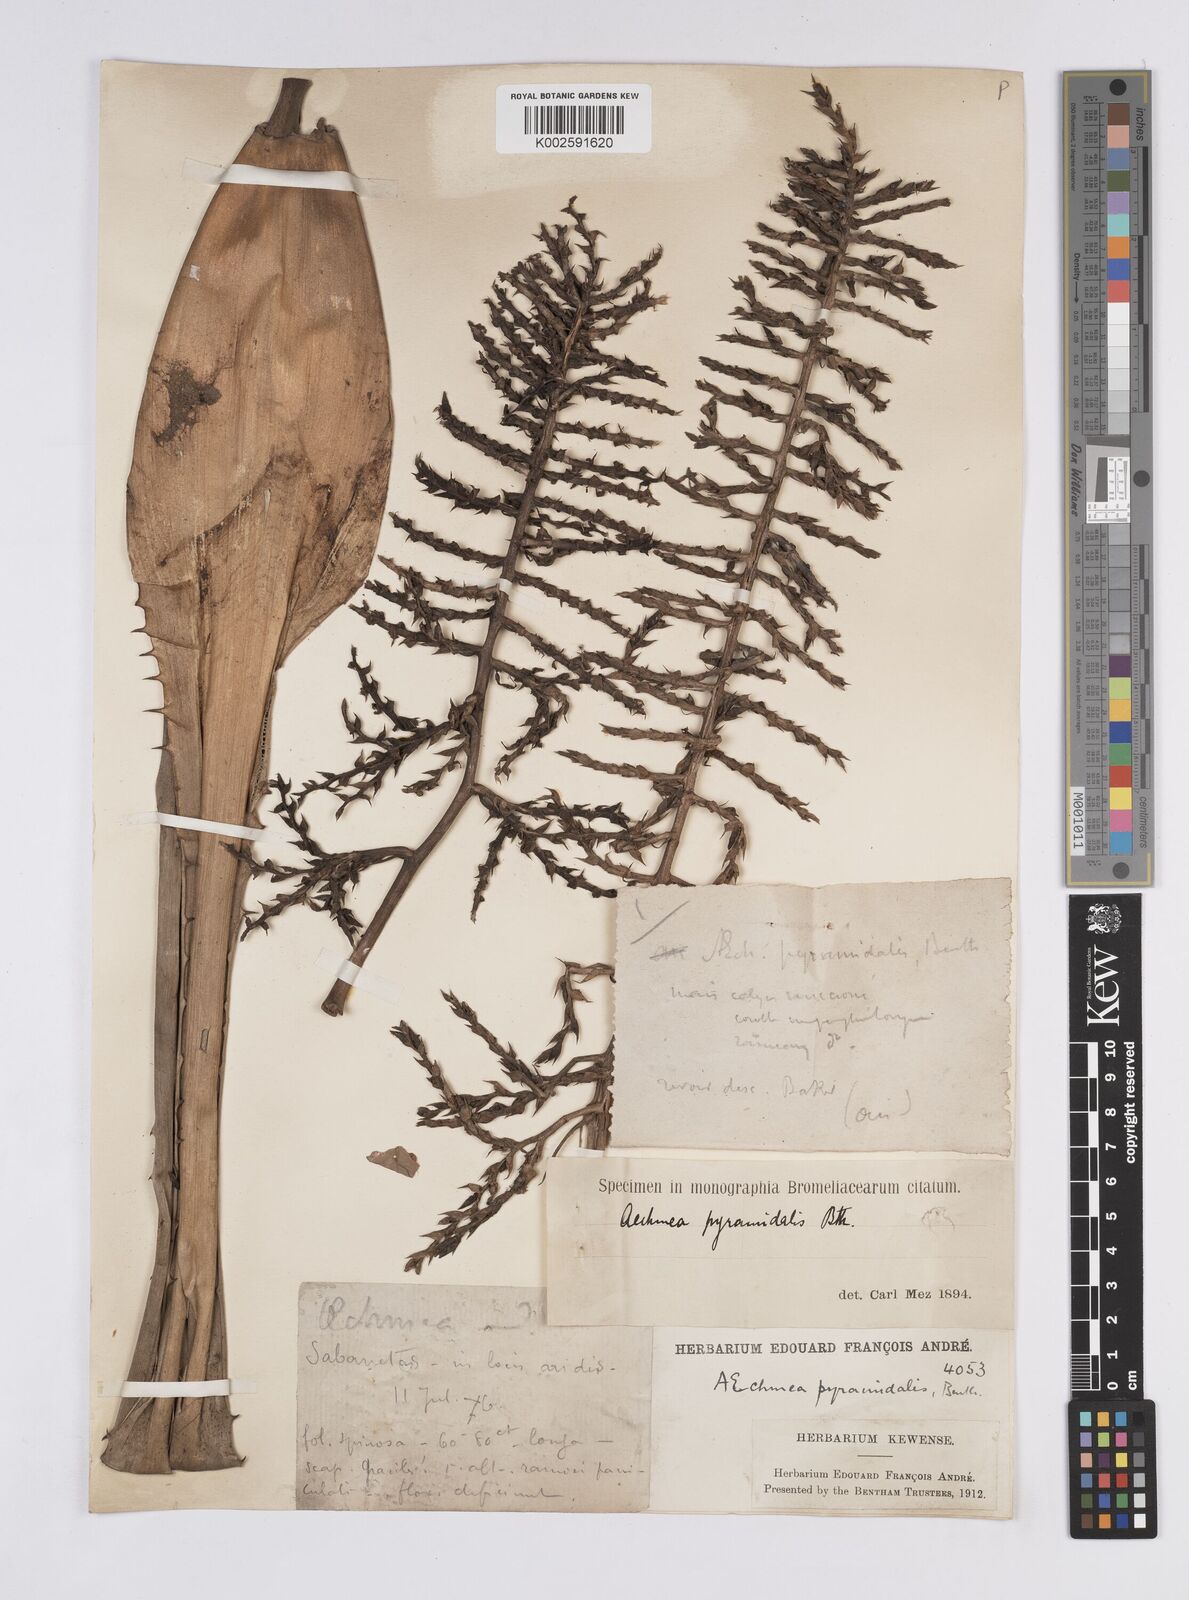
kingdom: Plantae
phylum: Tracheophyta
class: Liliopsida
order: Poales
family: Bromeliaceae
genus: Aechmea
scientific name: Aechmea pyramidalis
